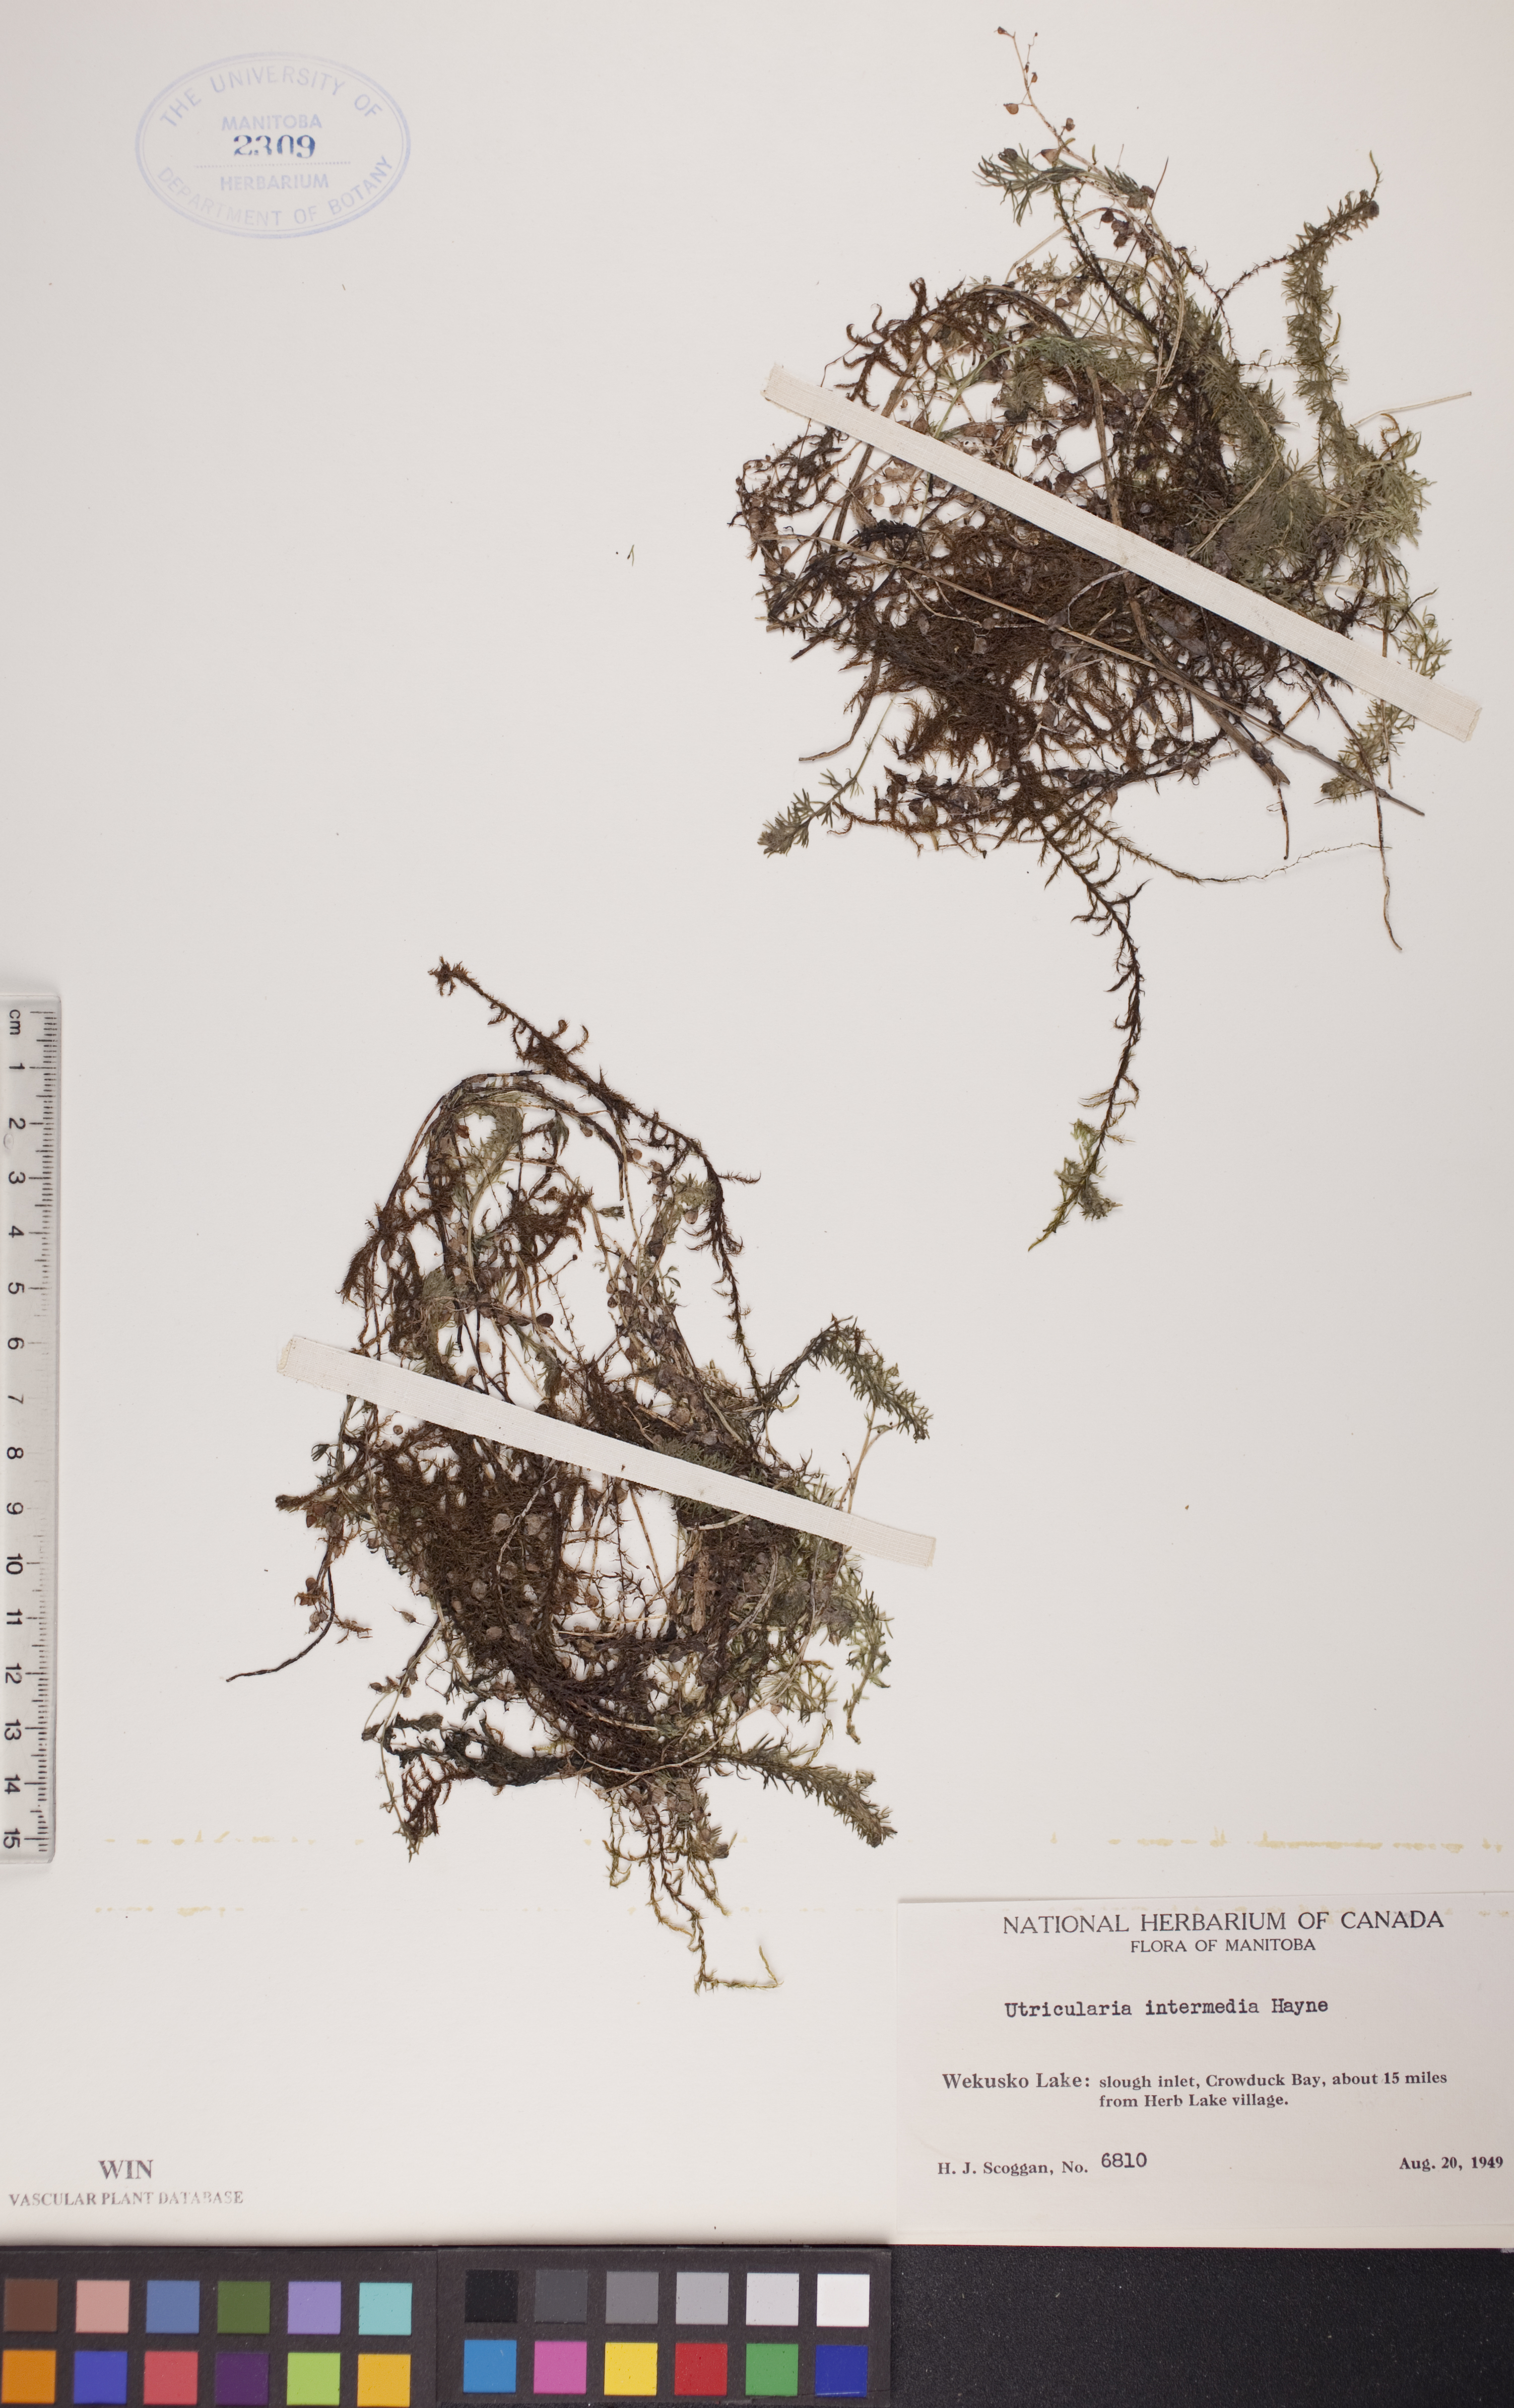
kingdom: Plantae
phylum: Tracheophyta
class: Magnoliopsida
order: Lamiales
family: Lentibulariaceae
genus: Utricularia
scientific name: Utricularia intermedia
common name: Intermediate bladderwort
